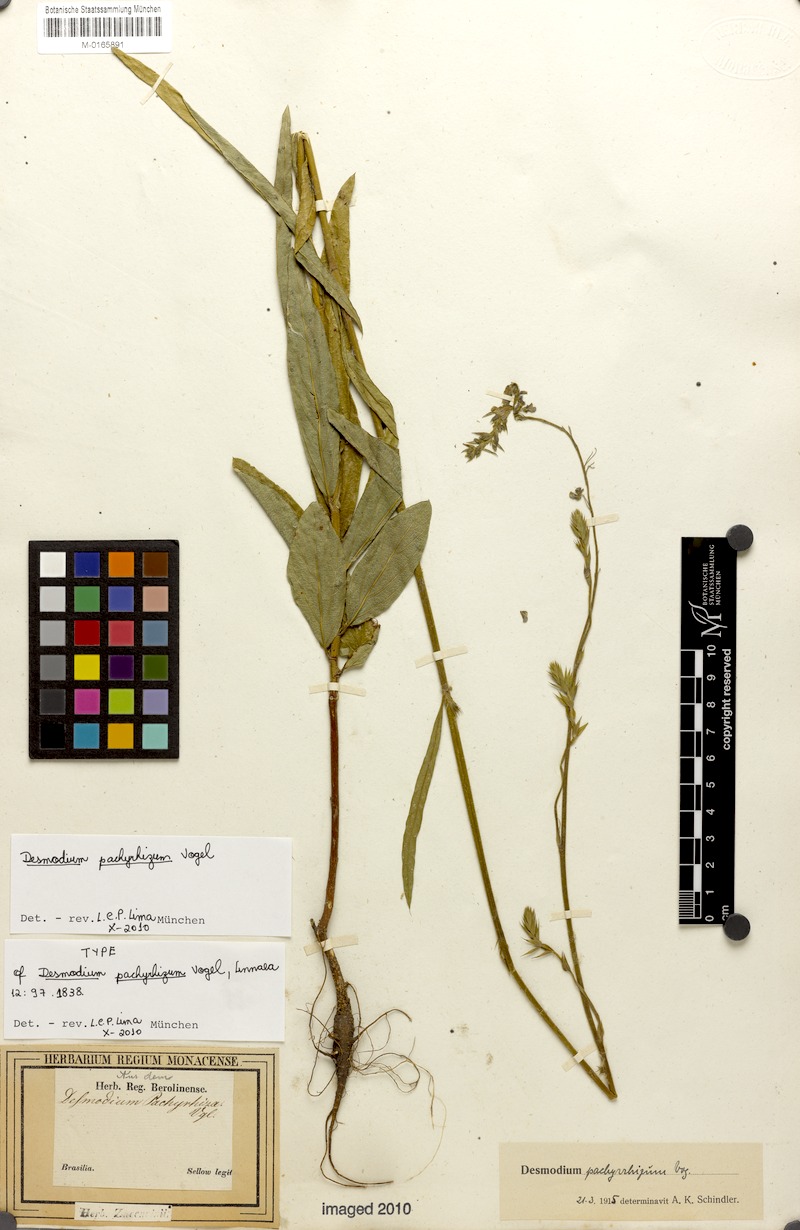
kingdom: Plantae
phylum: Tracheophyta
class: Magnoliopsida
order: Fabales
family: Fabaceae
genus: Desmodium
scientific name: Desmodium pachyrhizum
